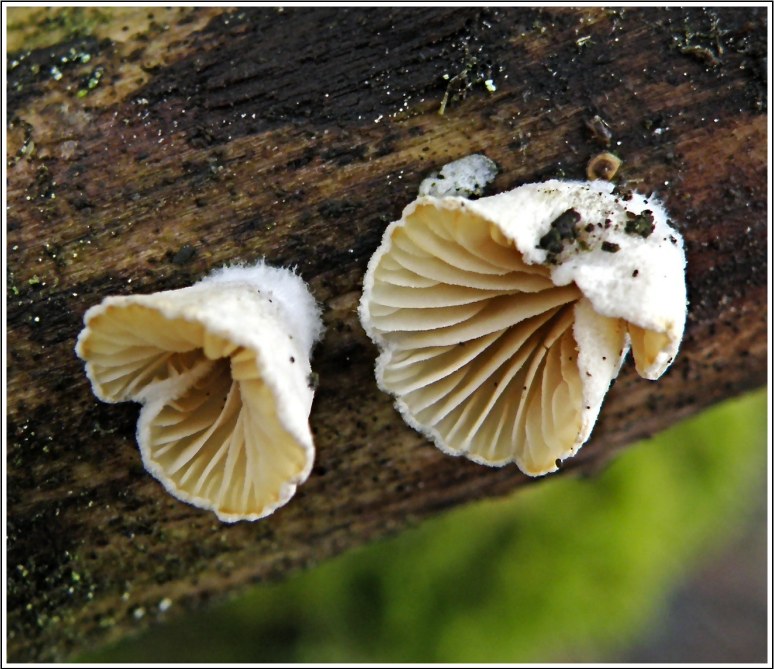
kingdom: Fungi
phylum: Basidiomycota
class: Agaricomycetes
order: Agaricales
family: Crepidotaceae
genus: Crepidotus
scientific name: Crepidotus cesatii
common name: almindelig muslingesvamp
